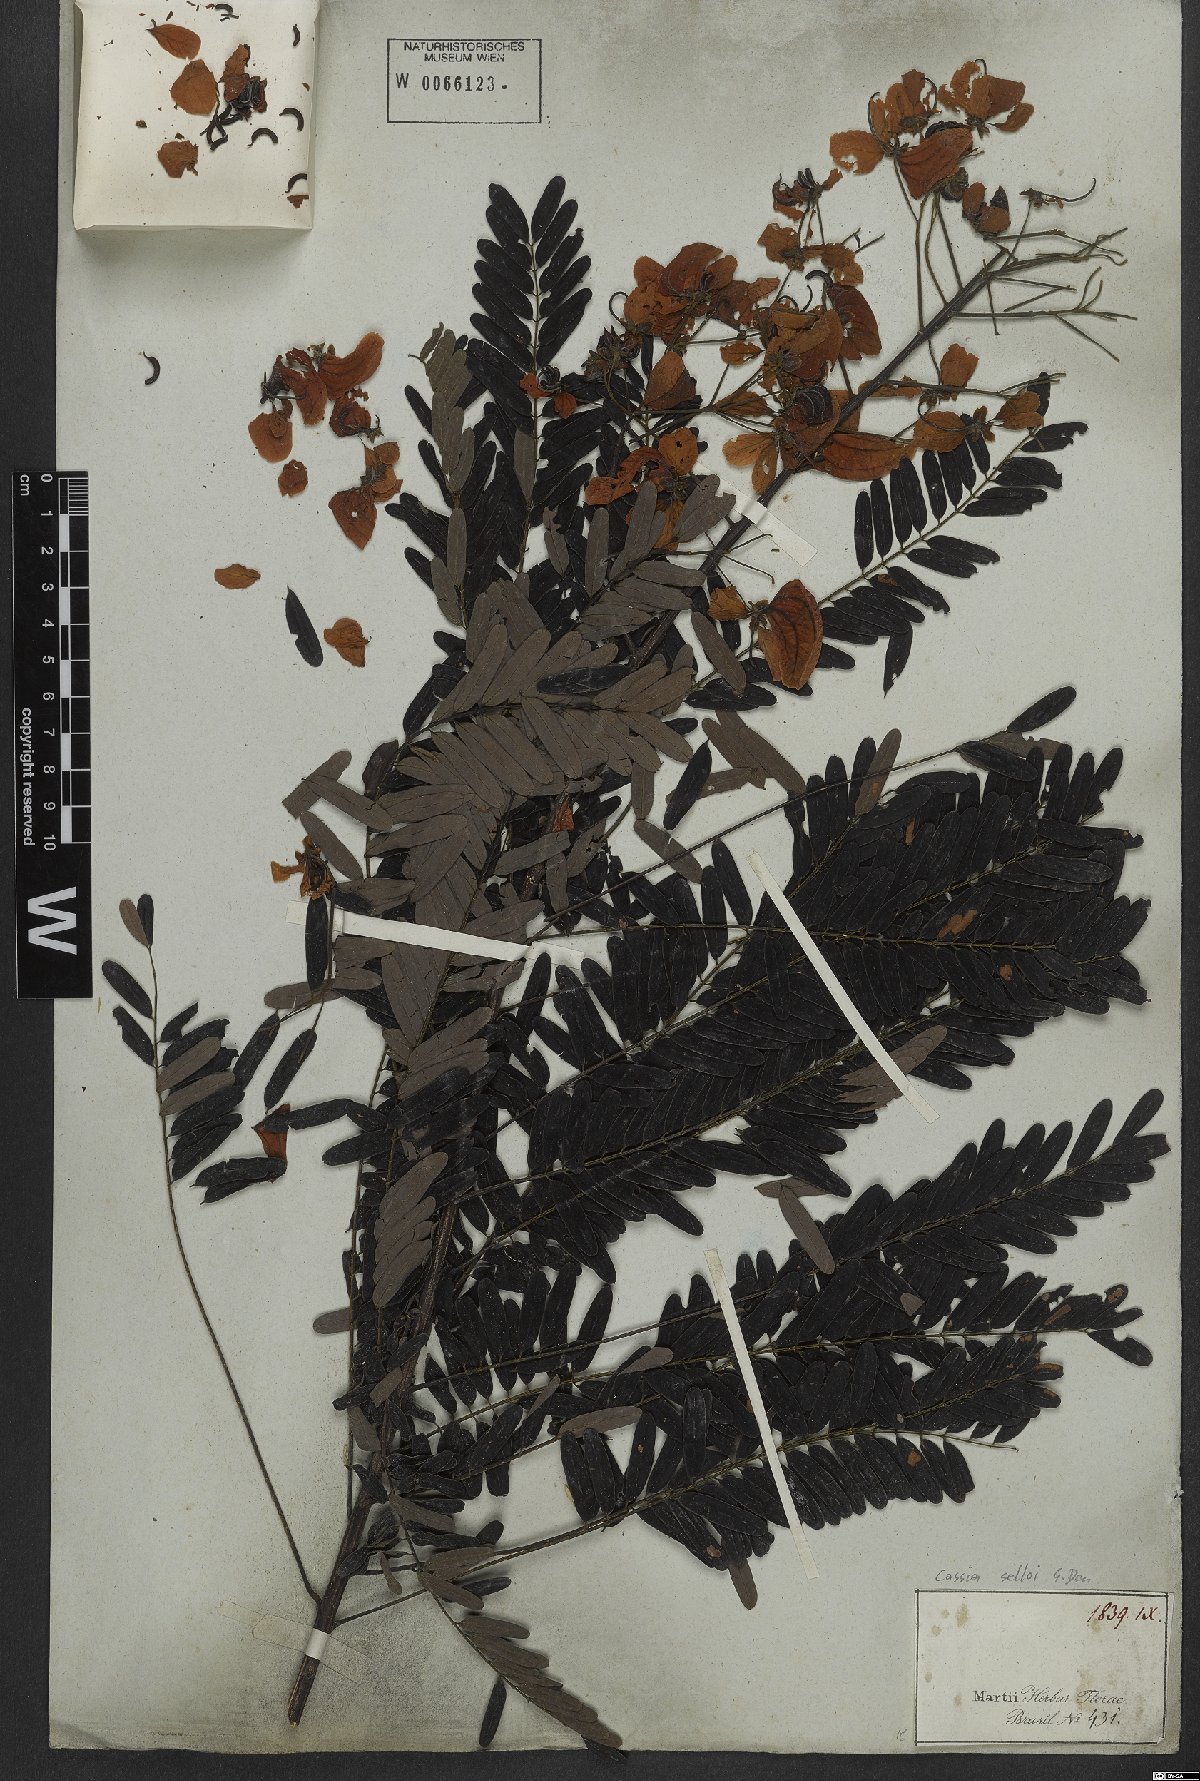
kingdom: Plantae
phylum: Tracheophyta
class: Magnoliopsida
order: Fabales
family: Fabaceae
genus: Senna
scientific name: Senna multijuga
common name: False sicklepod
